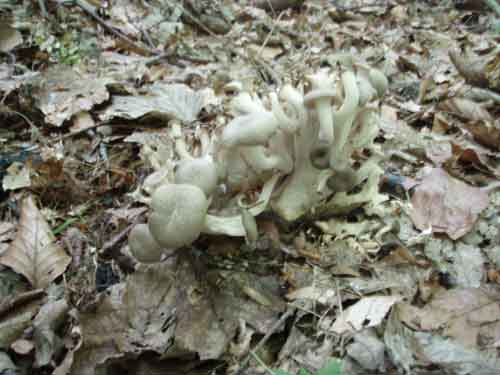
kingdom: Fungi
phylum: Basidiomycota
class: Agaricomycetes
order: Polyporales
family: Polyporaceae
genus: Polyporus
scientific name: Polyporus umbellatus
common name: skærmformet stilkporesvamp
